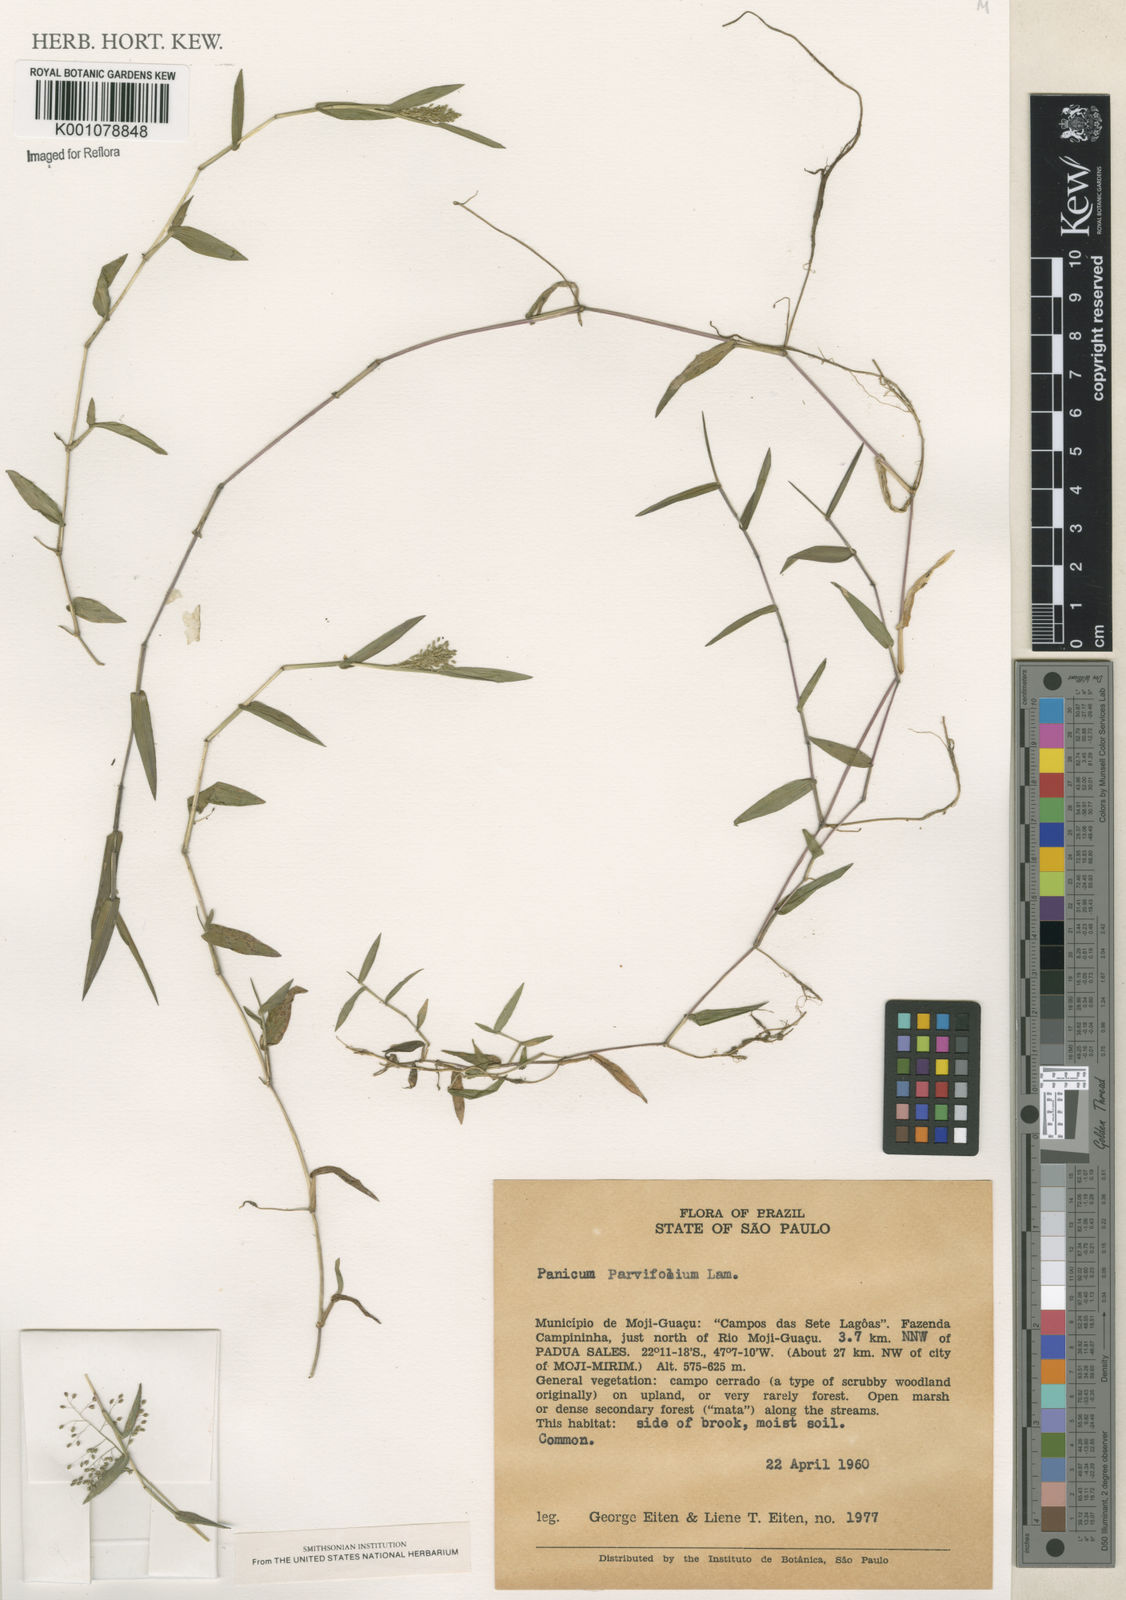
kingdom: Plantae
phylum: Tracheophyta
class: Liliopsida
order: Poales
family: Poaceae
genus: Trichanthecium
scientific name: Trichanthecium parvifolium
